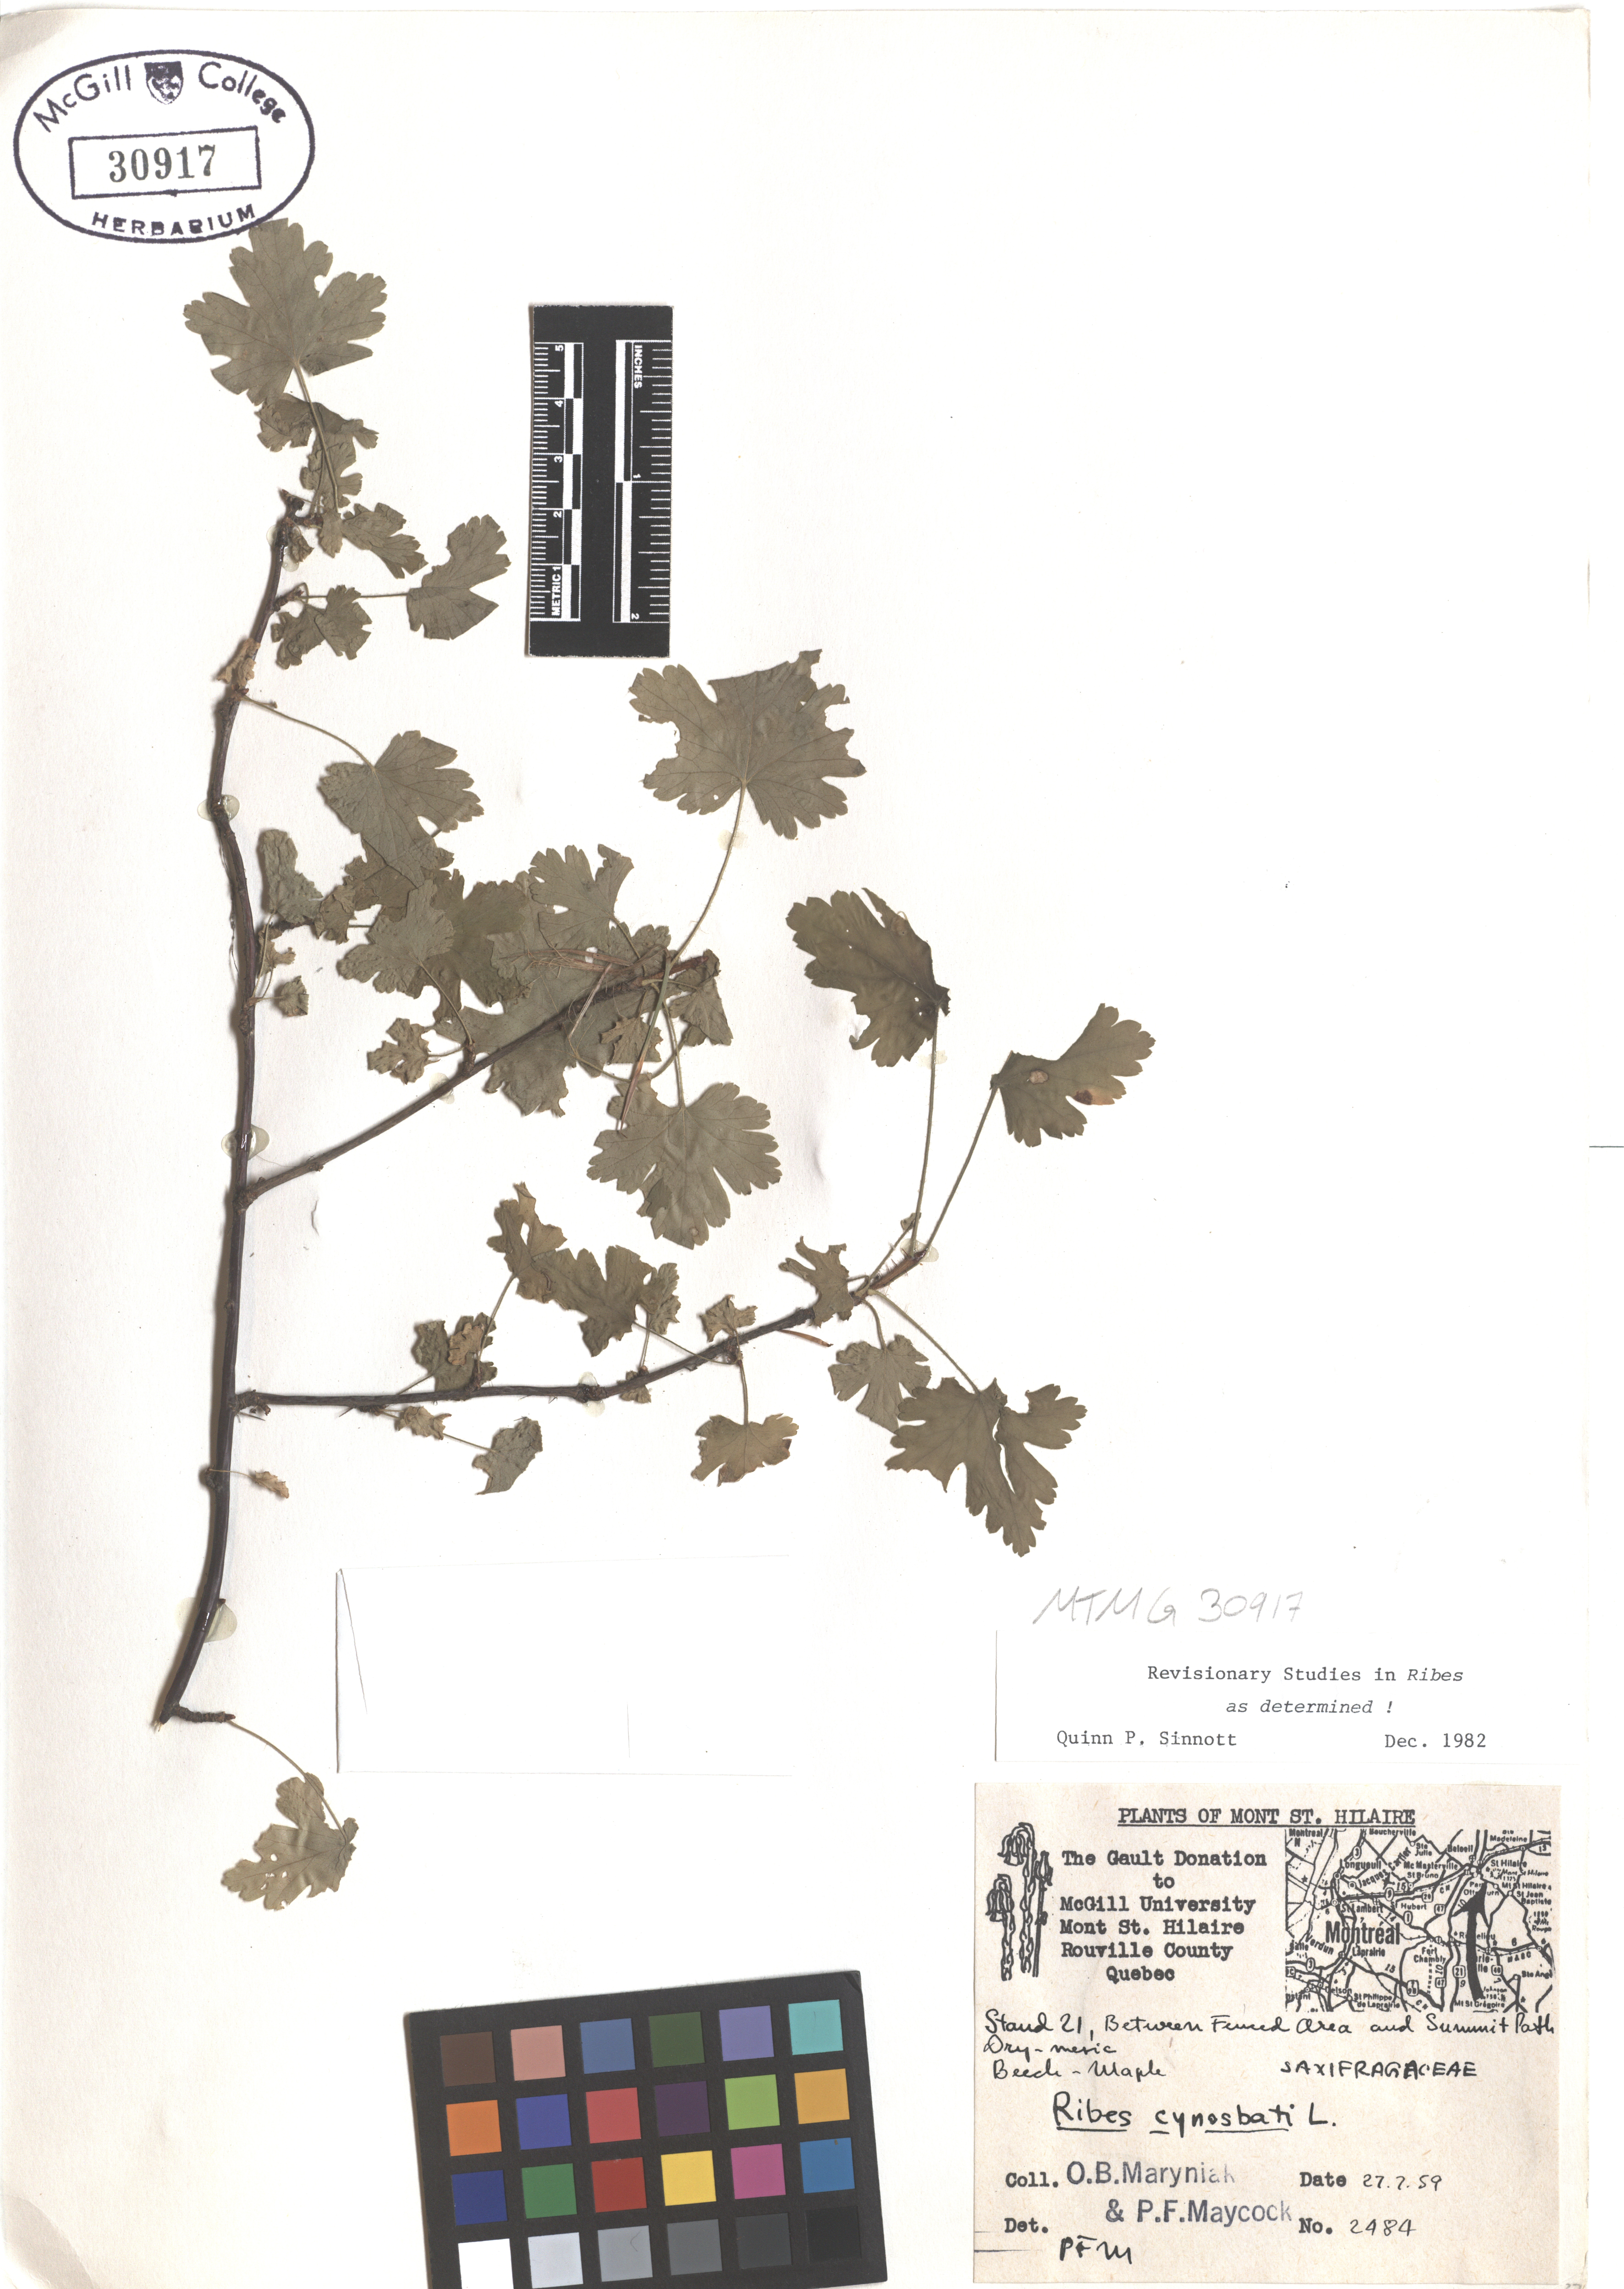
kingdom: Plantae
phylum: Tracheophyta
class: Magnoliopsida
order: Saxifragales
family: Grossulariaceae
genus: Ribes
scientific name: Ribes cynosbati
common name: American gooseberry
